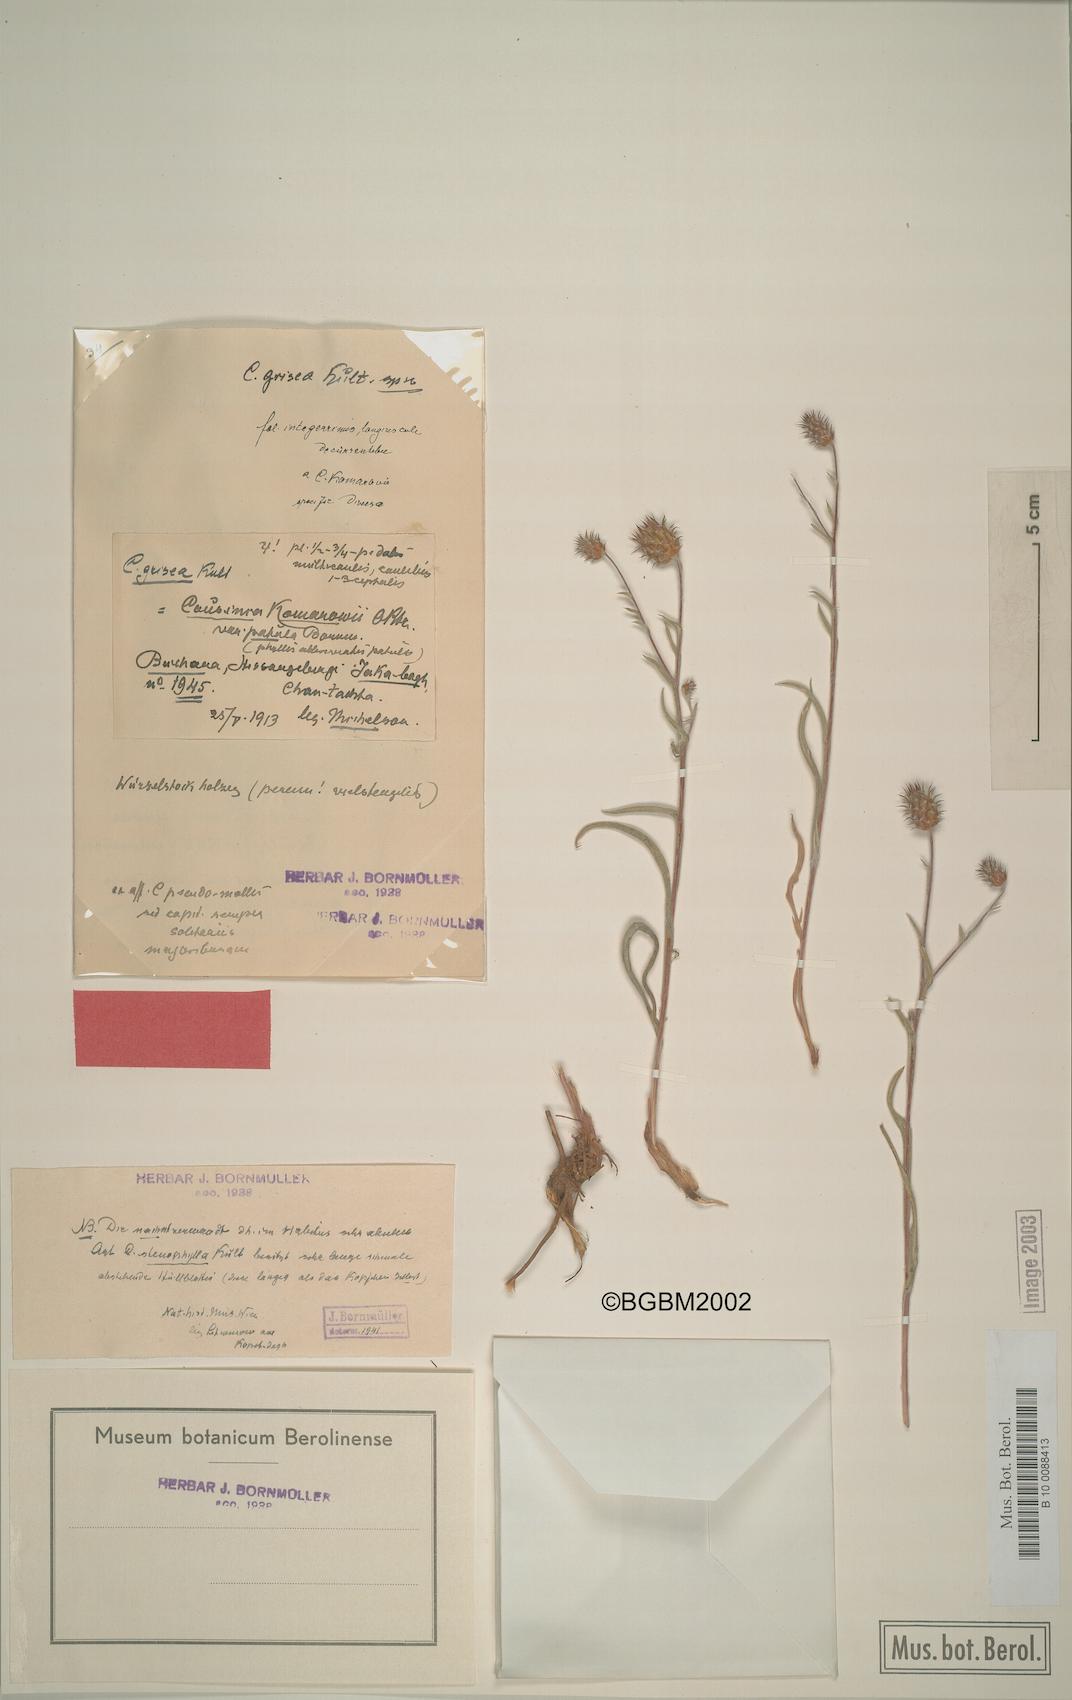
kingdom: Plantae
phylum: Tracheophyta
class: Magnoliopsida
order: Asterales
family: Asteraceae
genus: Cousinia
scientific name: Cousinia grisea
